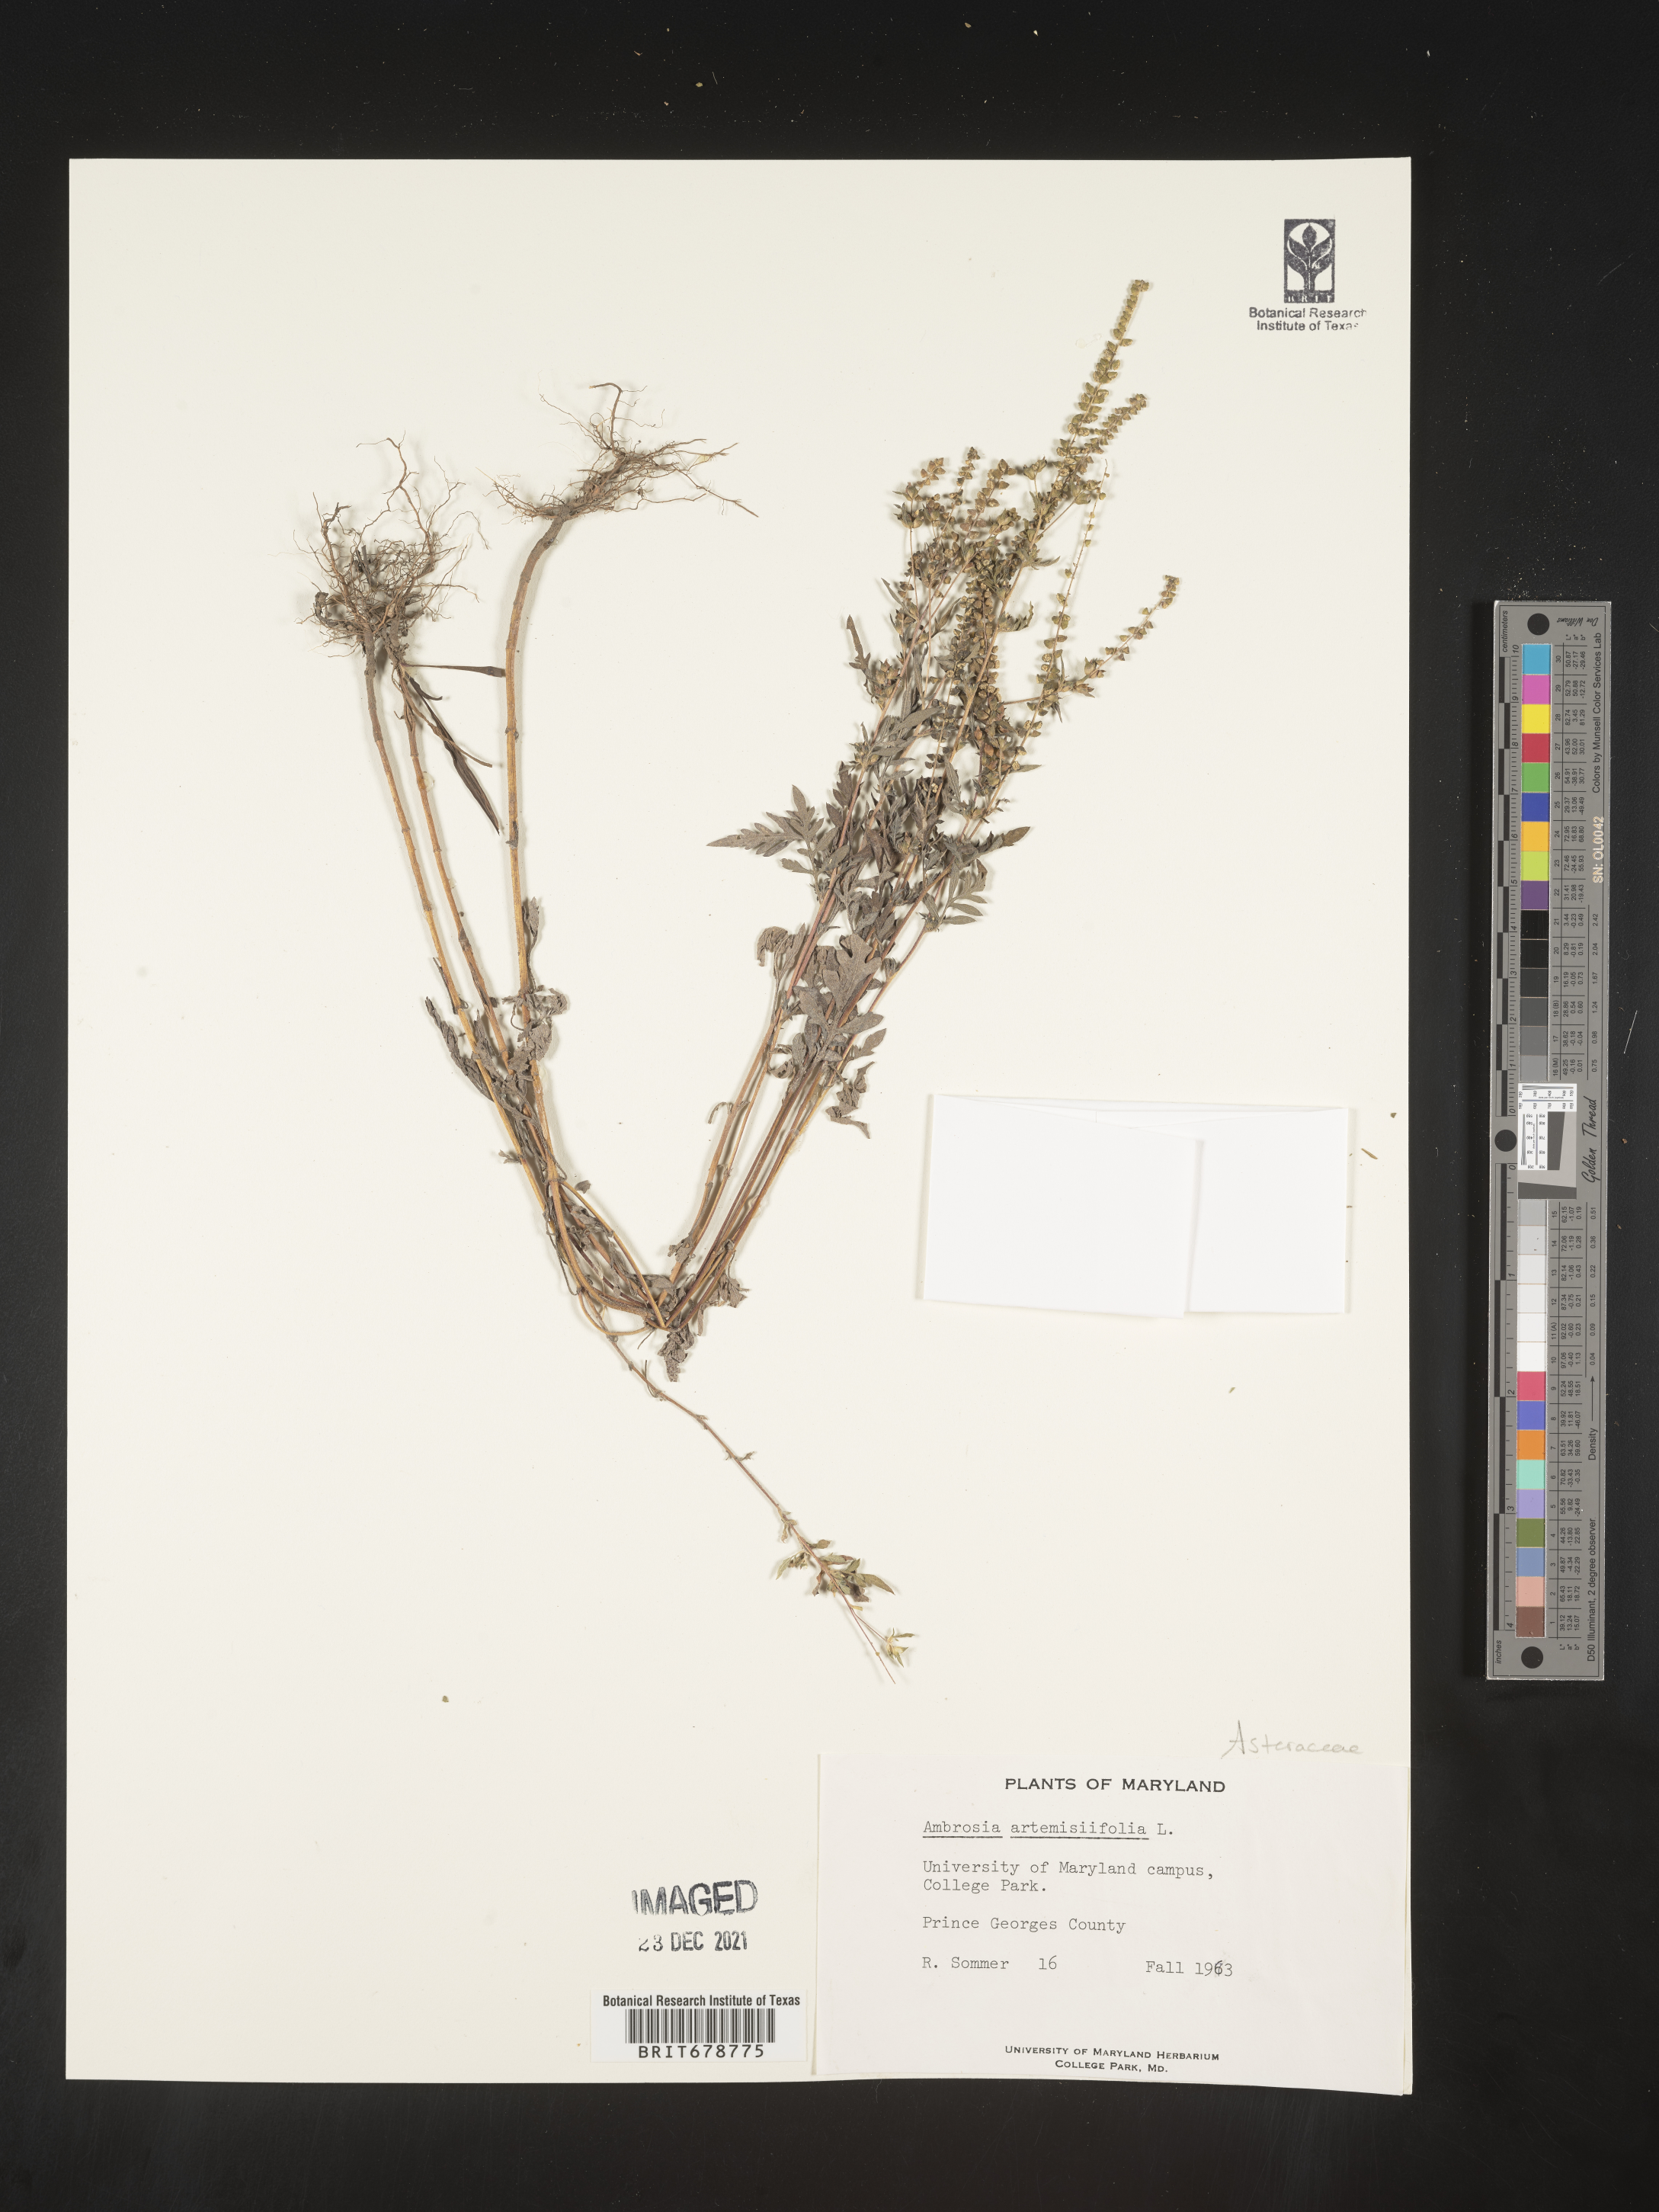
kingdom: Plantae
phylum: Tracheophyta
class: Magnoliopsida
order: Asterales
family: Asteraceae
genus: Ambrosia
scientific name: Ambrosia artemisiifolia
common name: Annual ragweed
